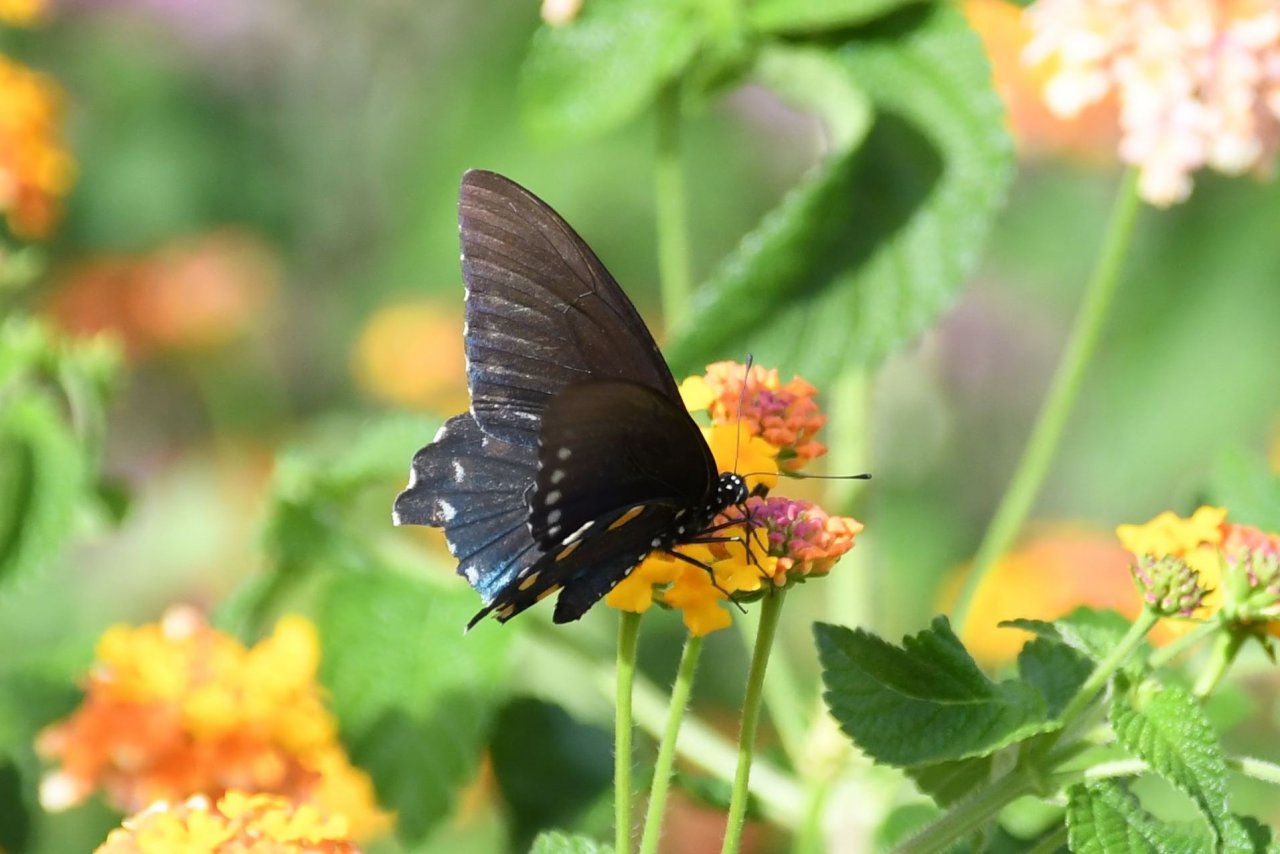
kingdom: Animalia
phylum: Arthropoda
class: Insecta
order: Lepidoptera
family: Papilionidae
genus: Battus
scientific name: Battus philenor
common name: Pipevine Swallowtail
